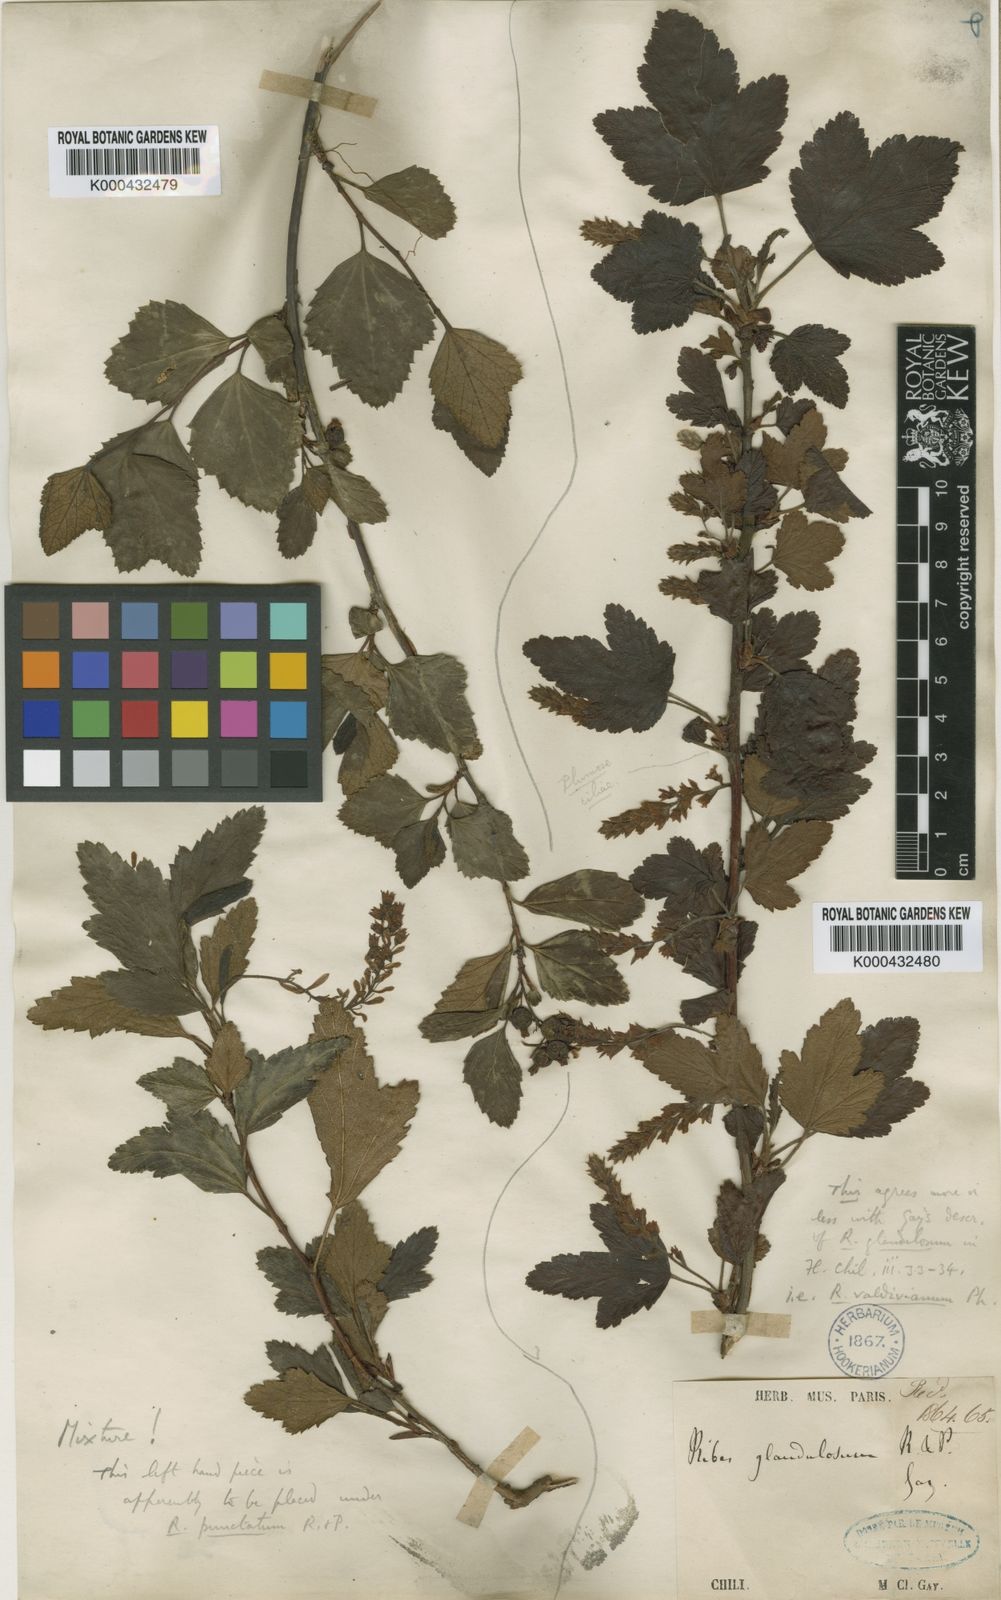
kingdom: Plantae
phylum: Tracheophyta
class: Magnoliopsida
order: Saxifragales
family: Grossulariaceae
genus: Ribes
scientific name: Ribes valdivianum
